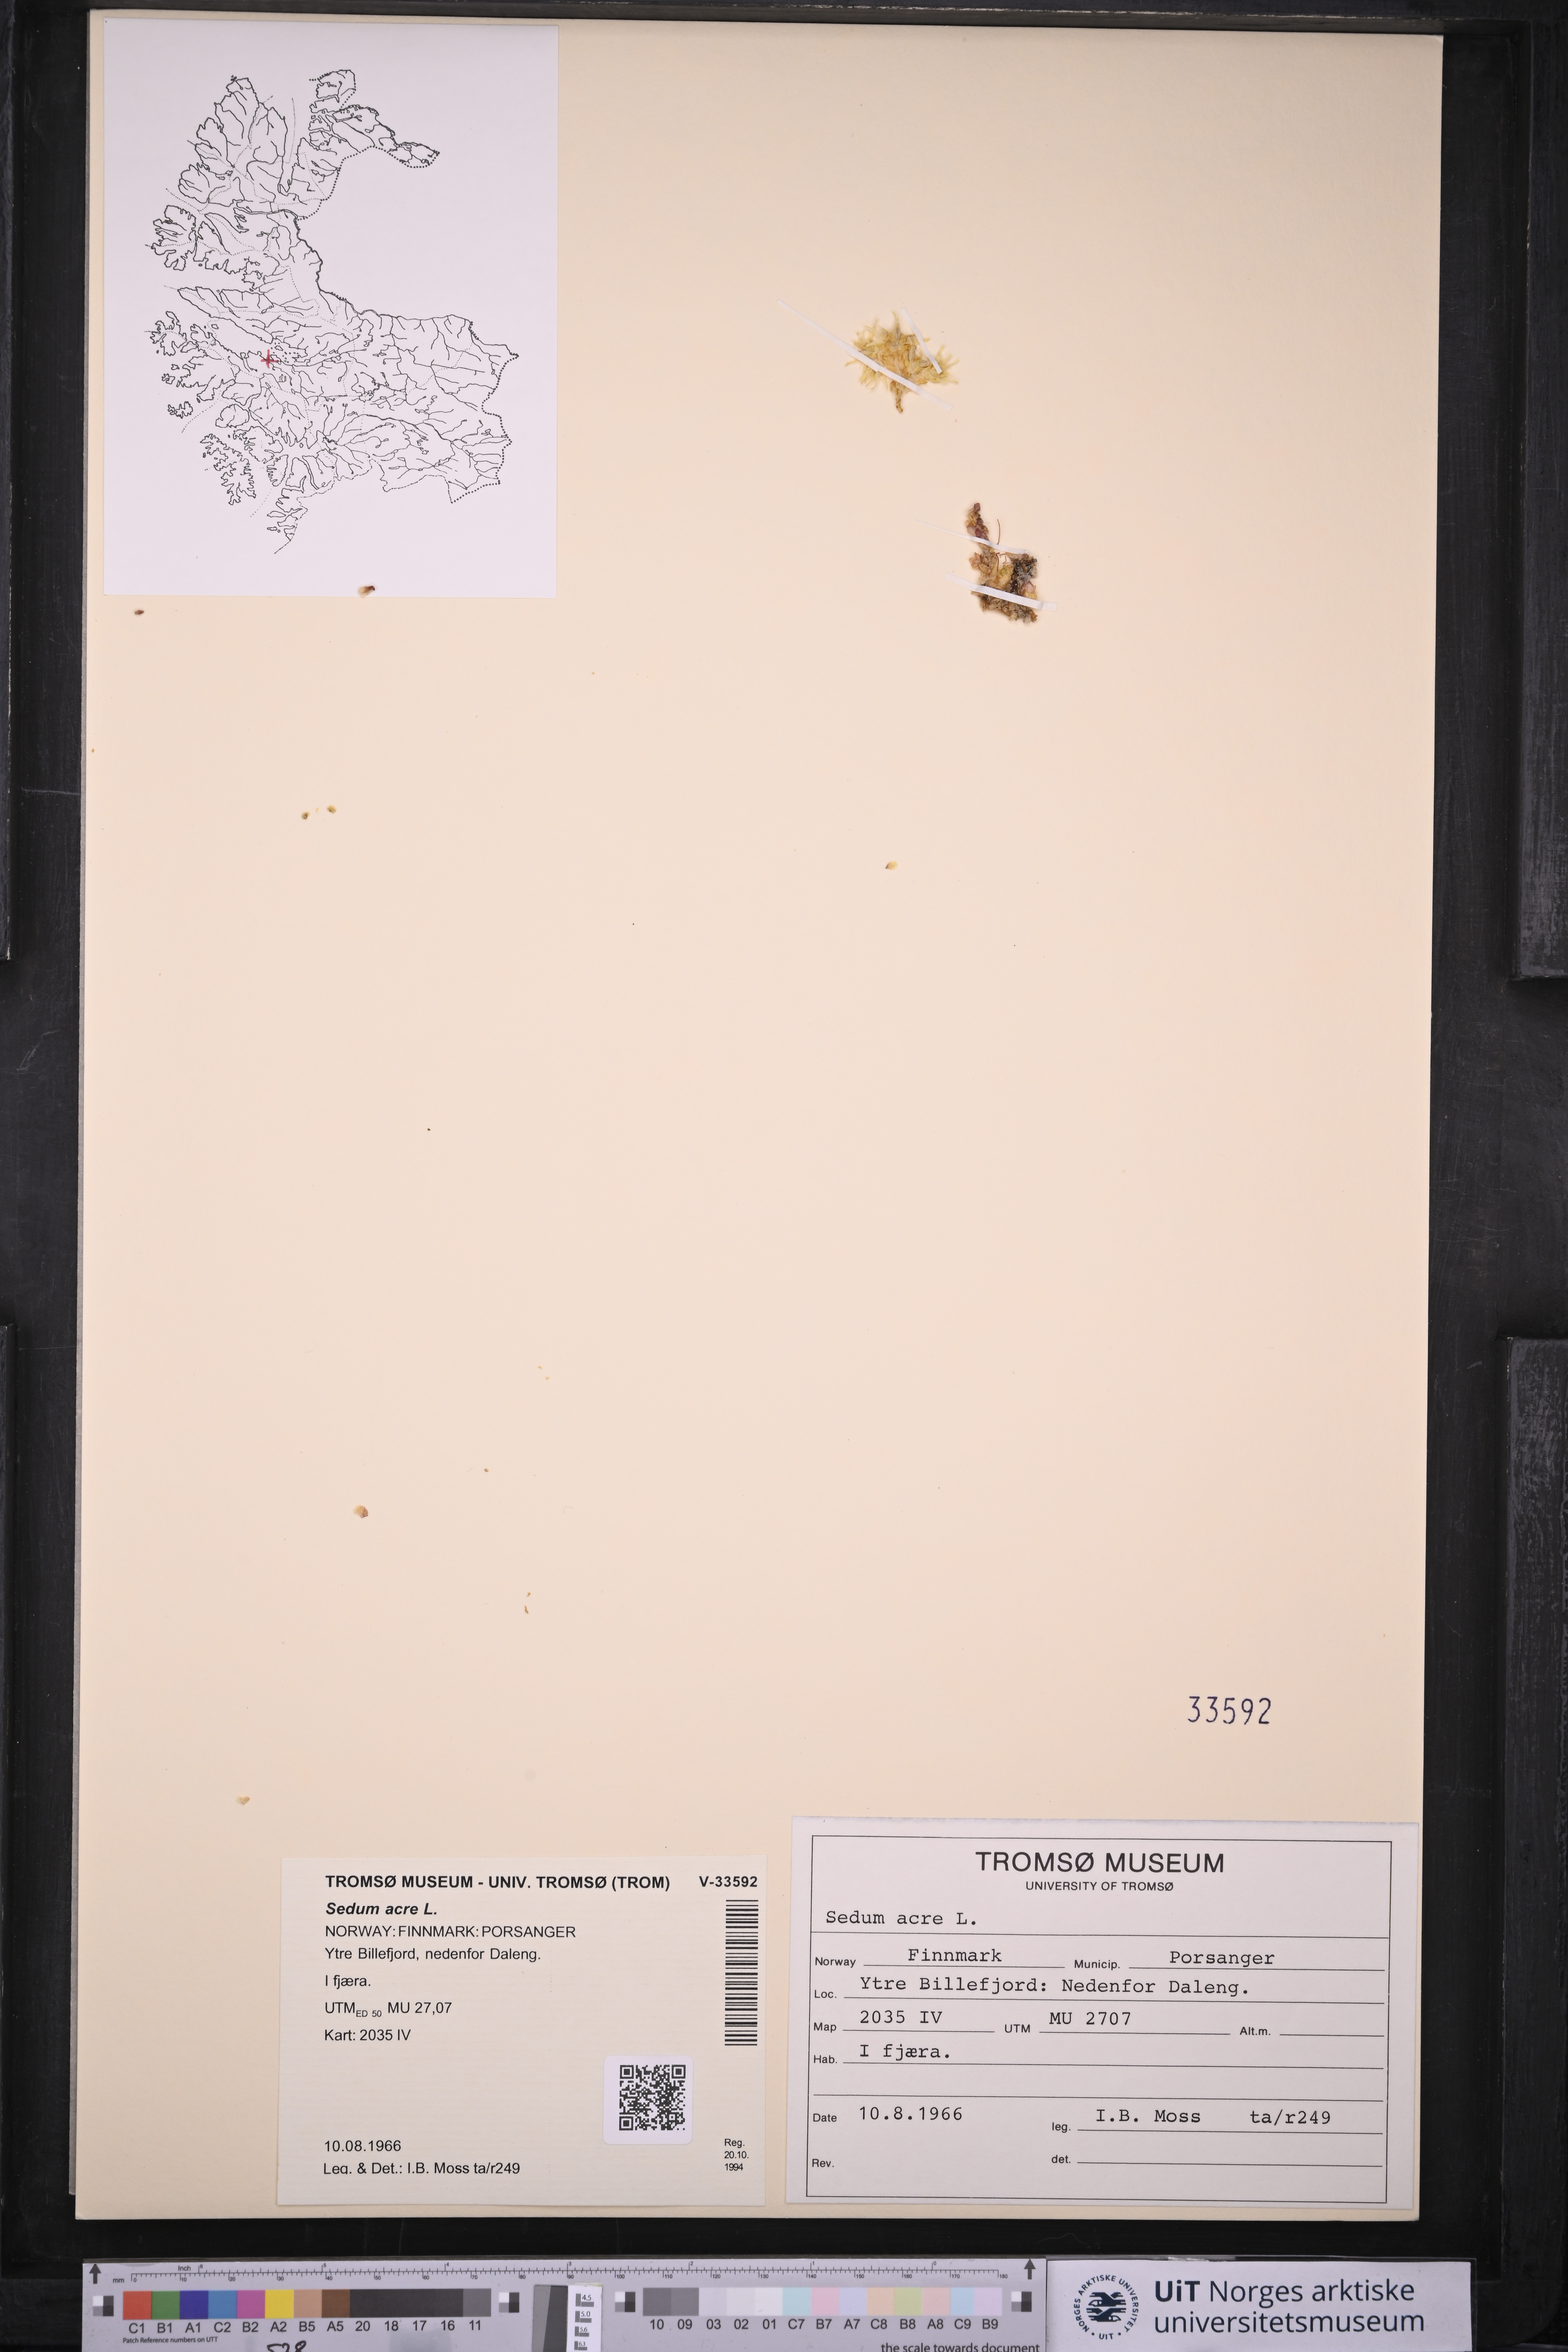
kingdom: Plantae
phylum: Tracheophyta
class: Magnoliopsida
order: Saxifragales
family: Crassulaceae
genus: Sedum
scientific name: Sedum acre
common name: Biting stonecrop
